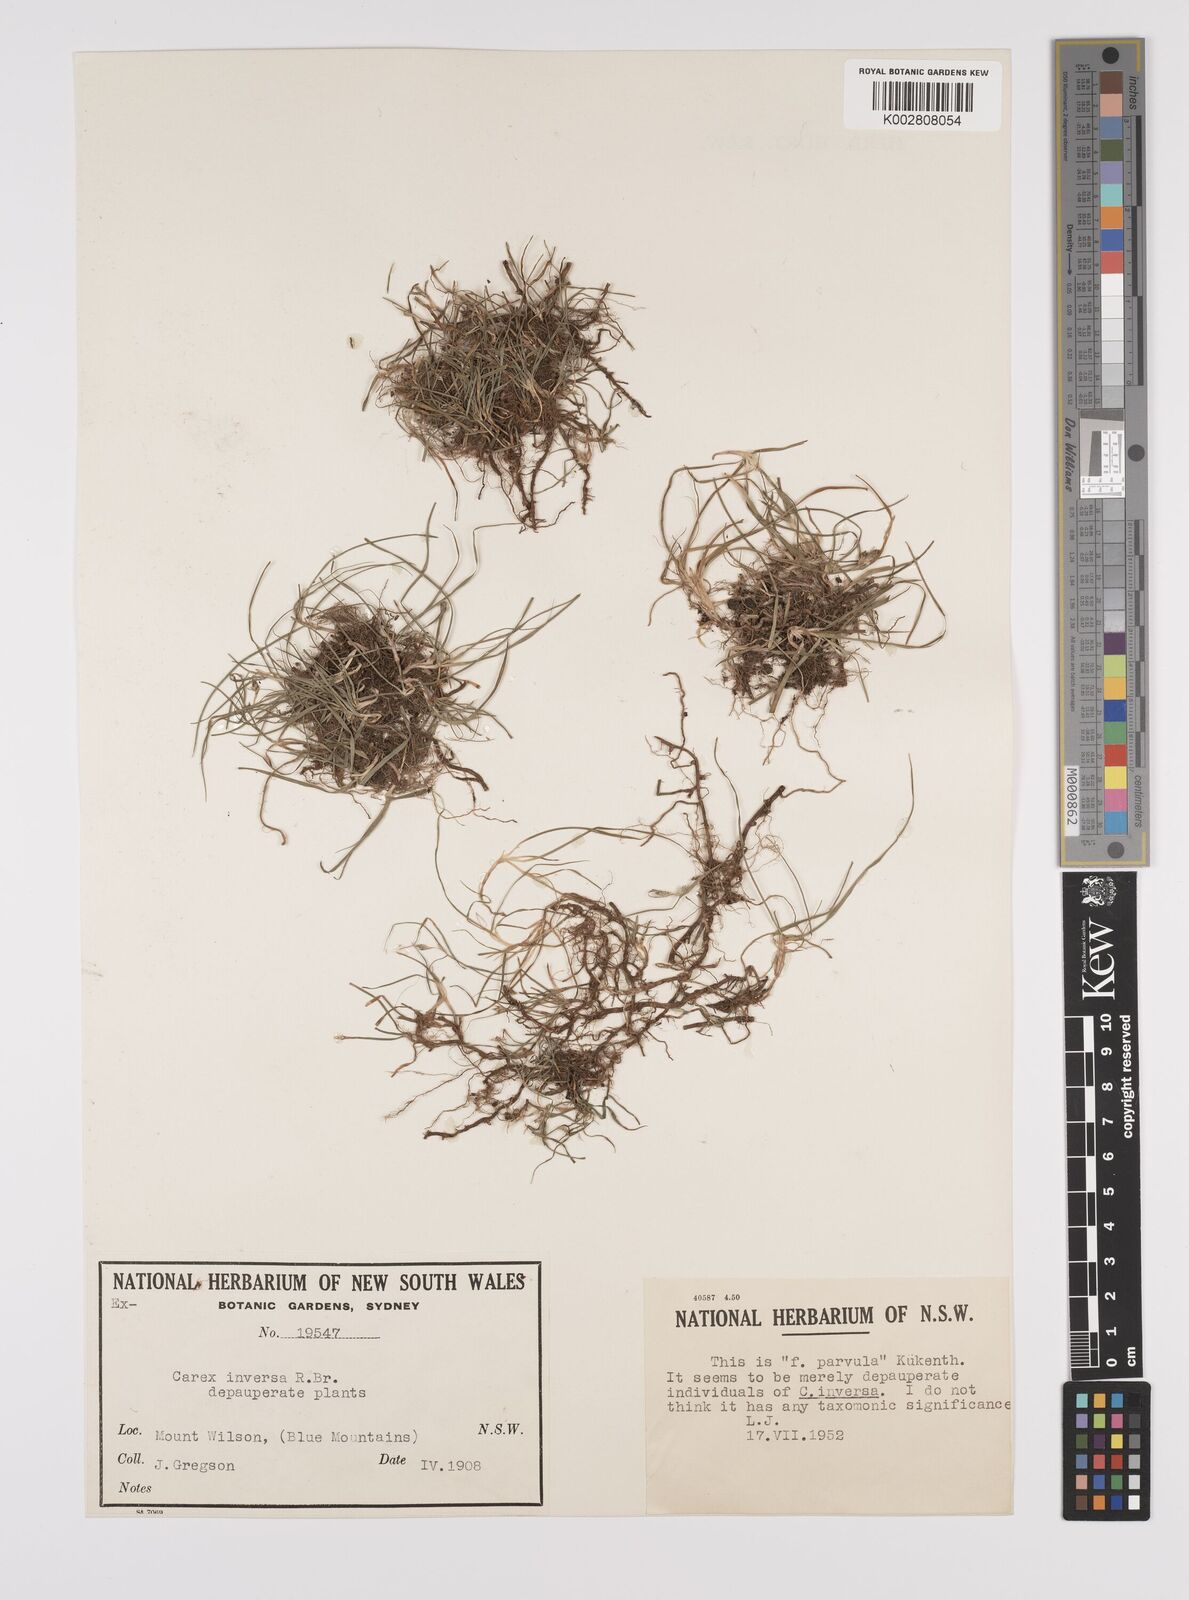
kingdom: Plantae
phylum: Tracheophyta
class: Liliopsida
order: Poales
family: Cyperaceae
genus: Carex
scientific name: Carex inversa
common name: Knob sedge
